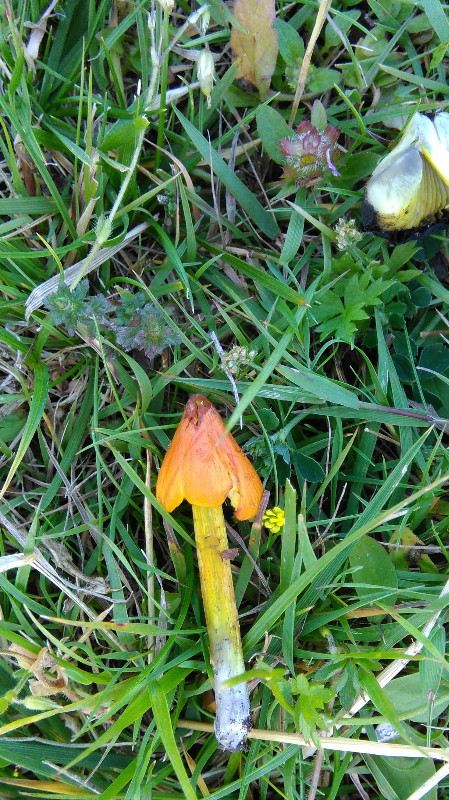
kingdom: Fungi
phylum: Basidiomycota
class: Agaricomycetes
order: Agaricales
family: Hygrophoraceae
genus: Hygrocybe
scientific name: Hygrocybe conica
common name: kegle-vokshat
